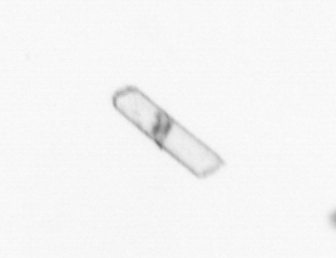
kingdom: Chromista
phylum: Ochrophyta
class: Bacillariophyceae
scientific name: Bacillariophyceae
